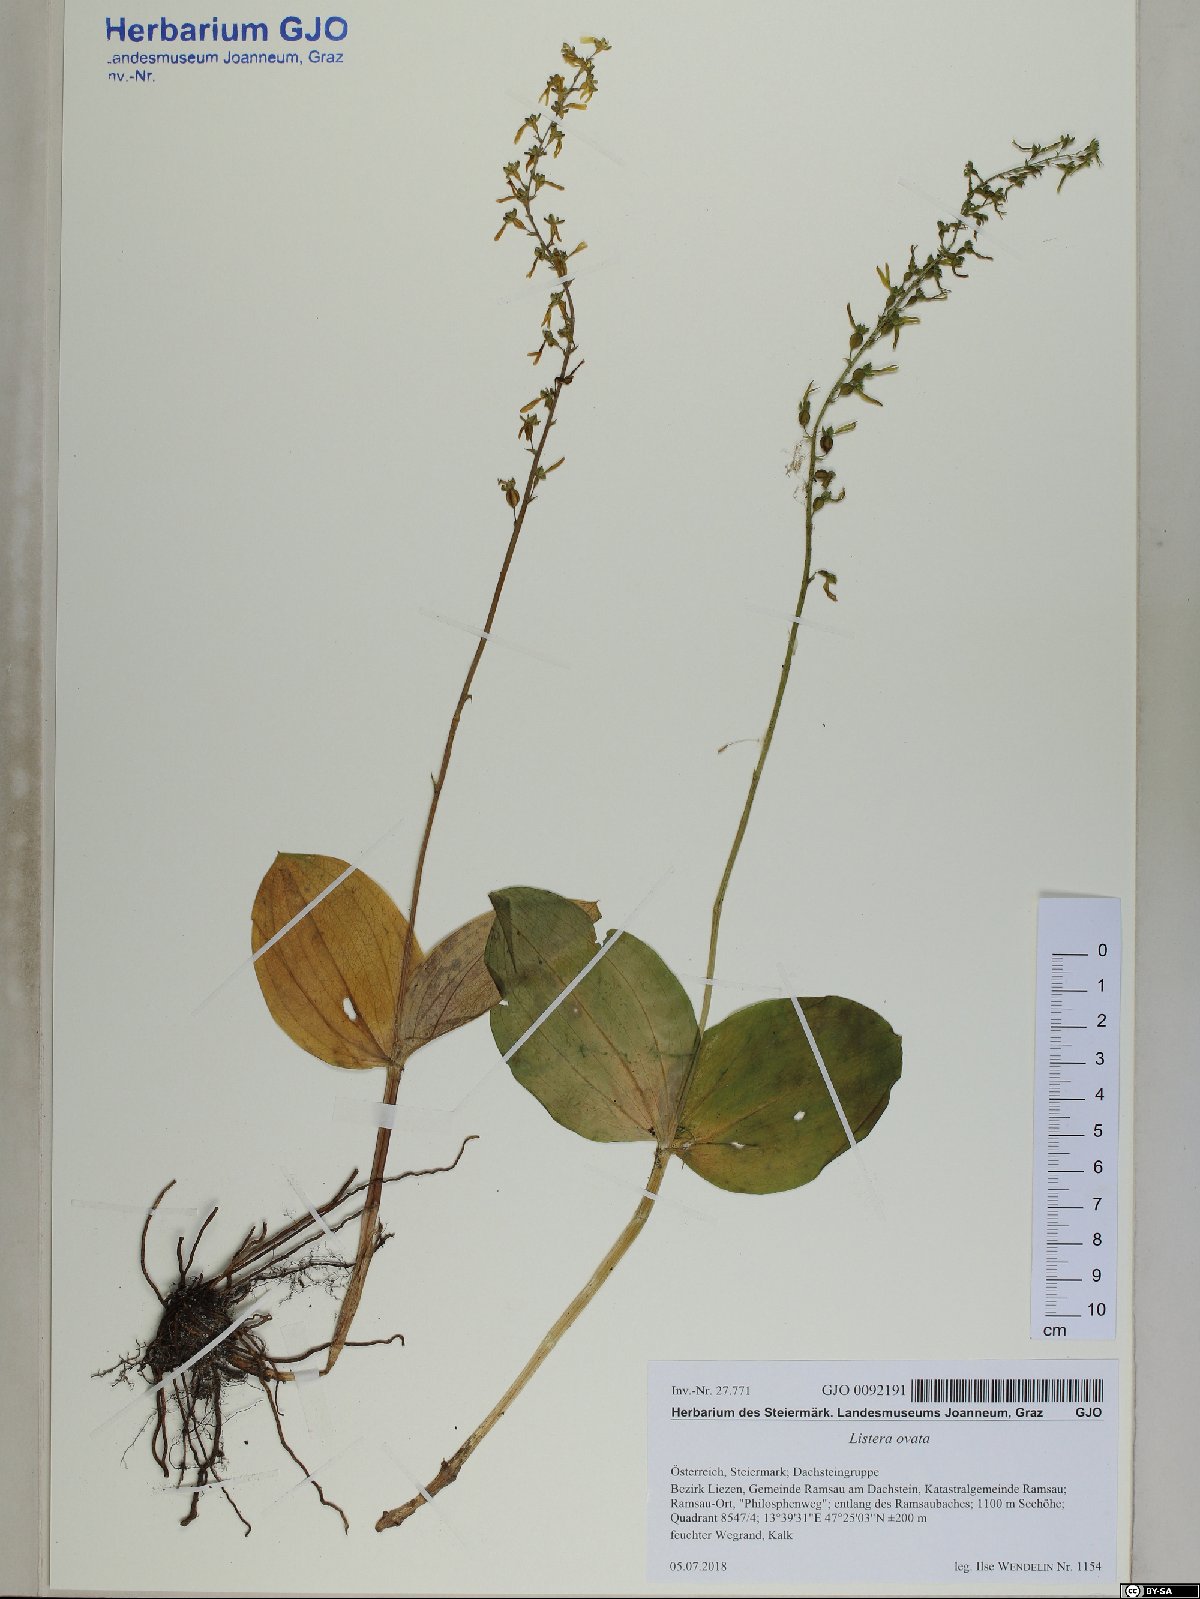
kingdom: Plantae
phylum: Tracheophyta
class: Liliopsida
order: Asparagales
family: Orchidaceae
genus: Neottia
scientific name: Neottia ovata
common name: Common twayblade
